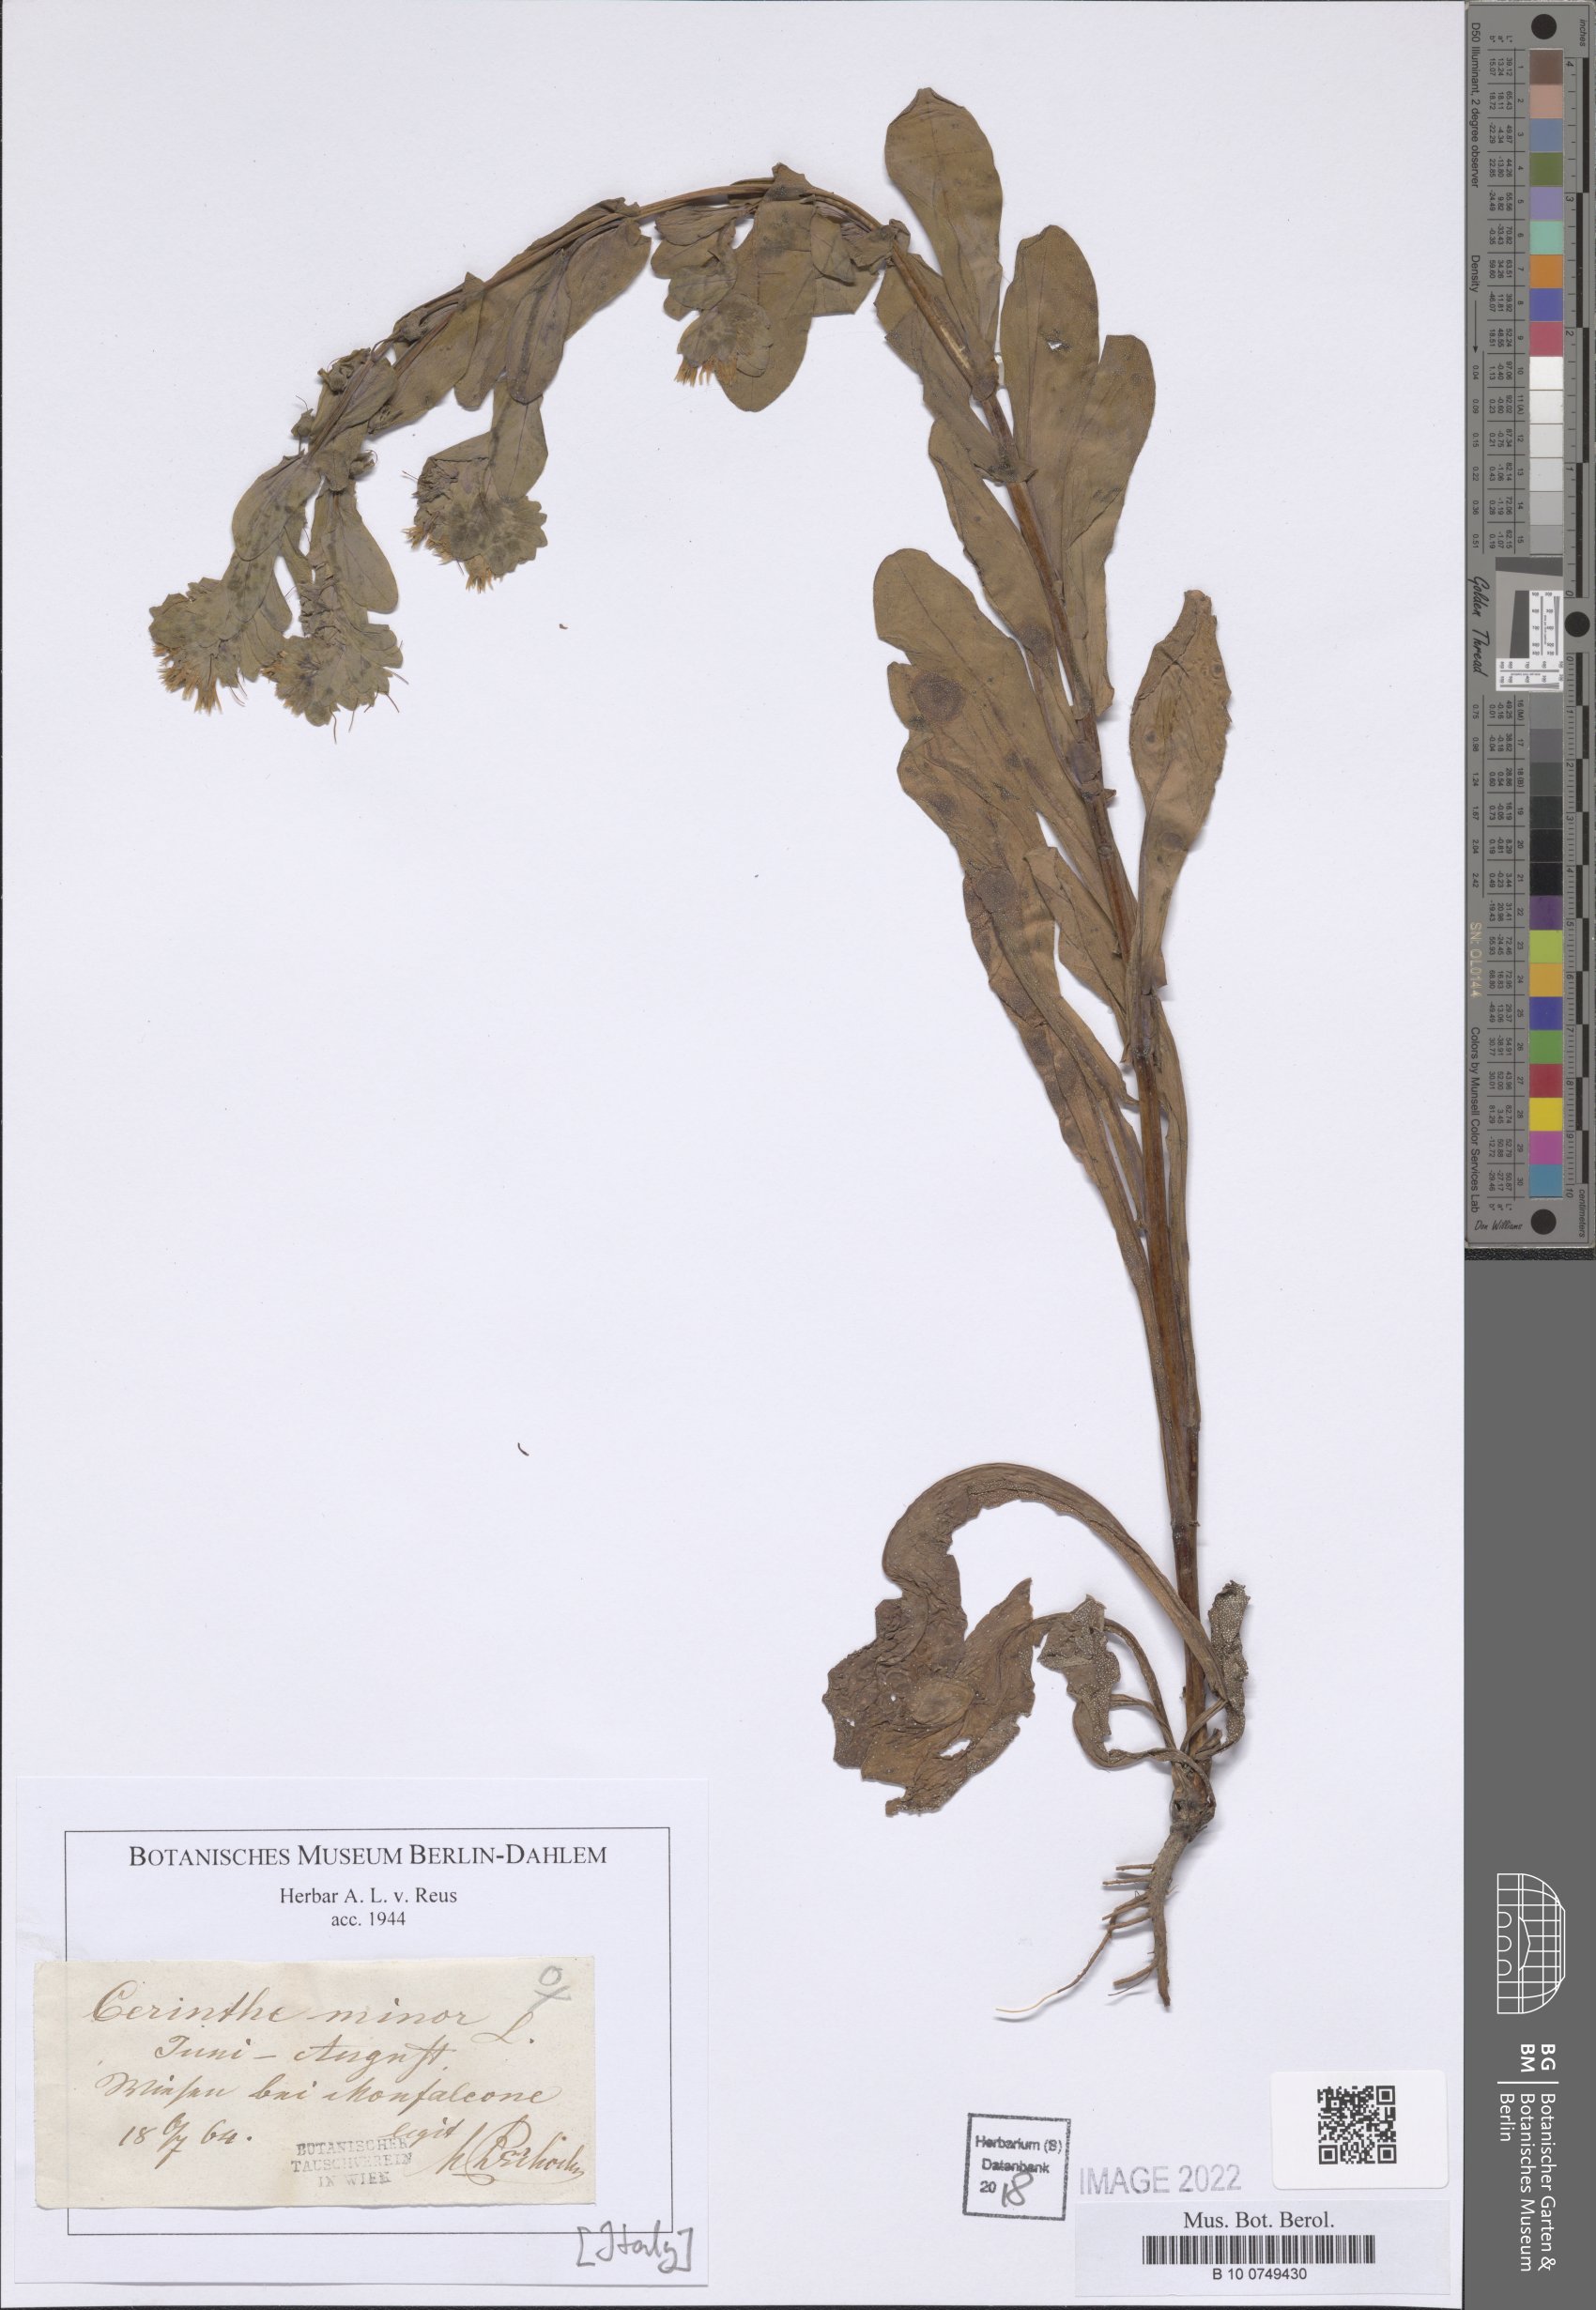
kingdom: Plantae
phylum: Tracheophyta
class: Magnoliopsida
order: Boraginales
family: Boraginaceae
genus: Cerinthe
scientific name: Cerinthe minor
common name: Lesser honeywort
